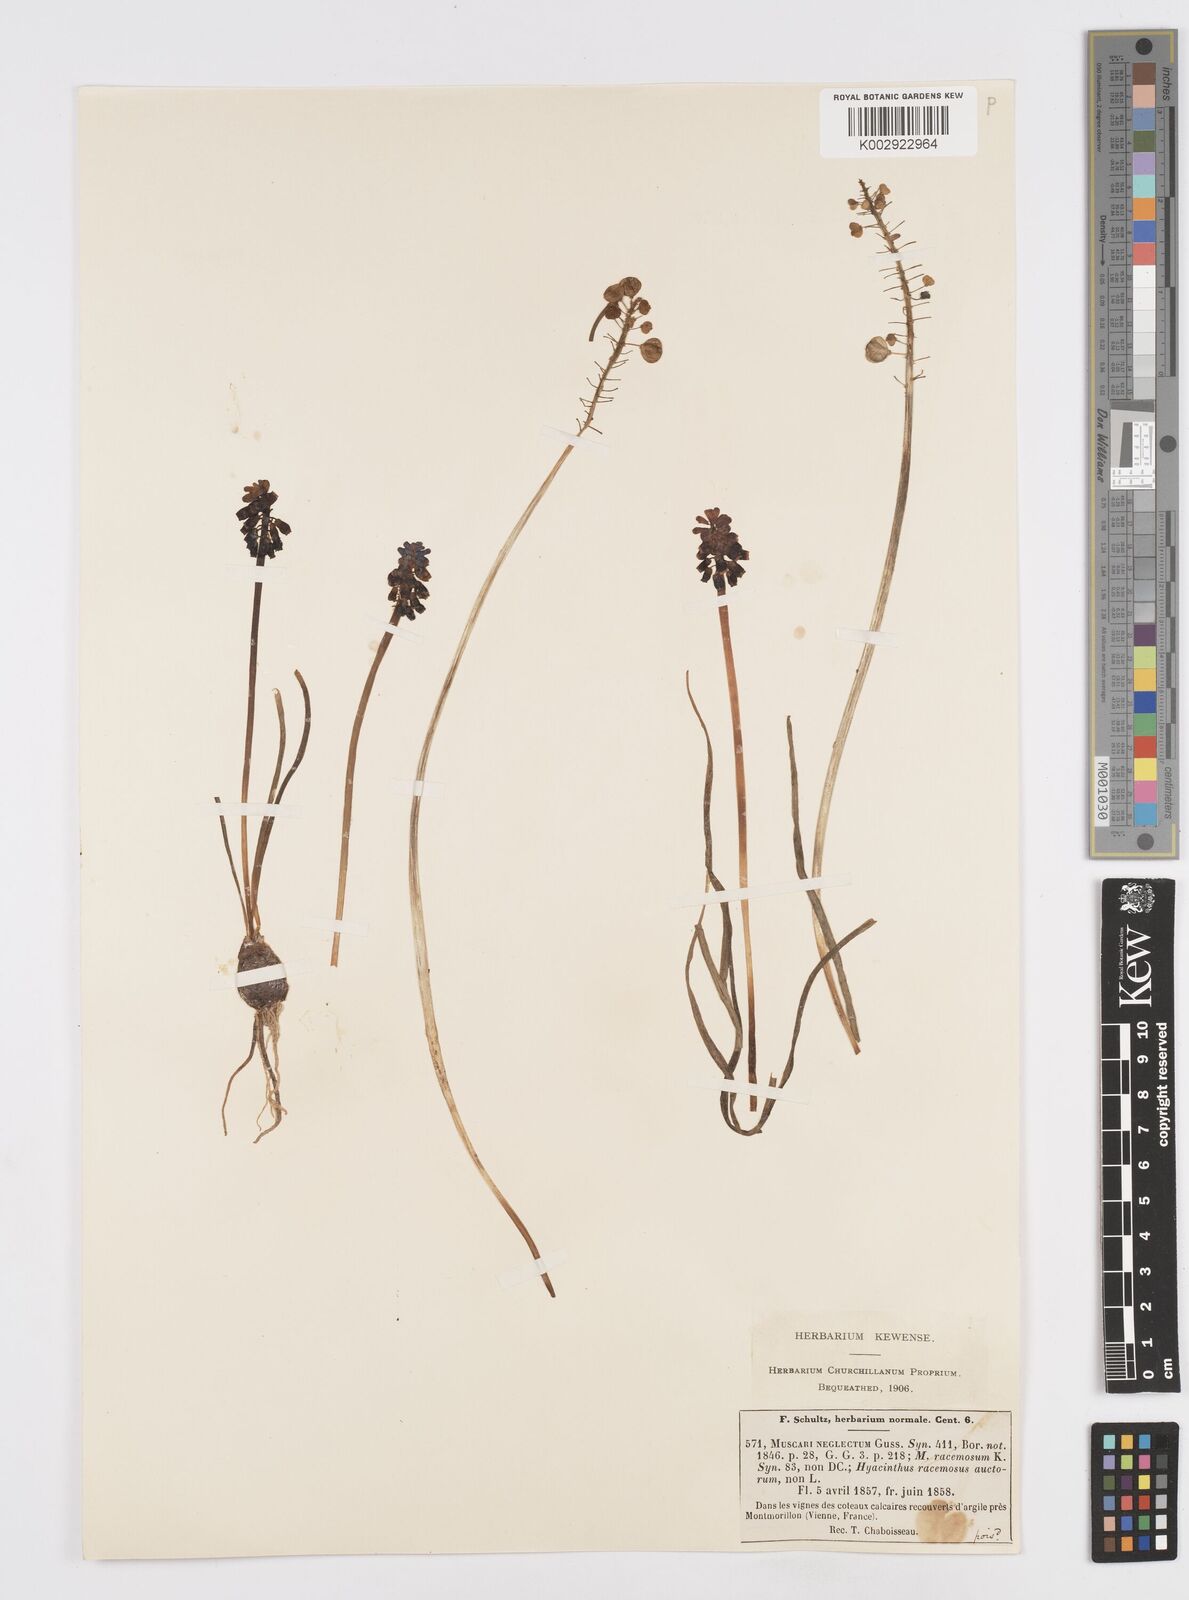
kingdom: Plantae
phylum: Tracheophyta
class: Liliopsida
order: Asparagales
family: Asparagaceae
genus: Muscari
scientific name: Muscari neglectum
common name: Grape-hyacinth
